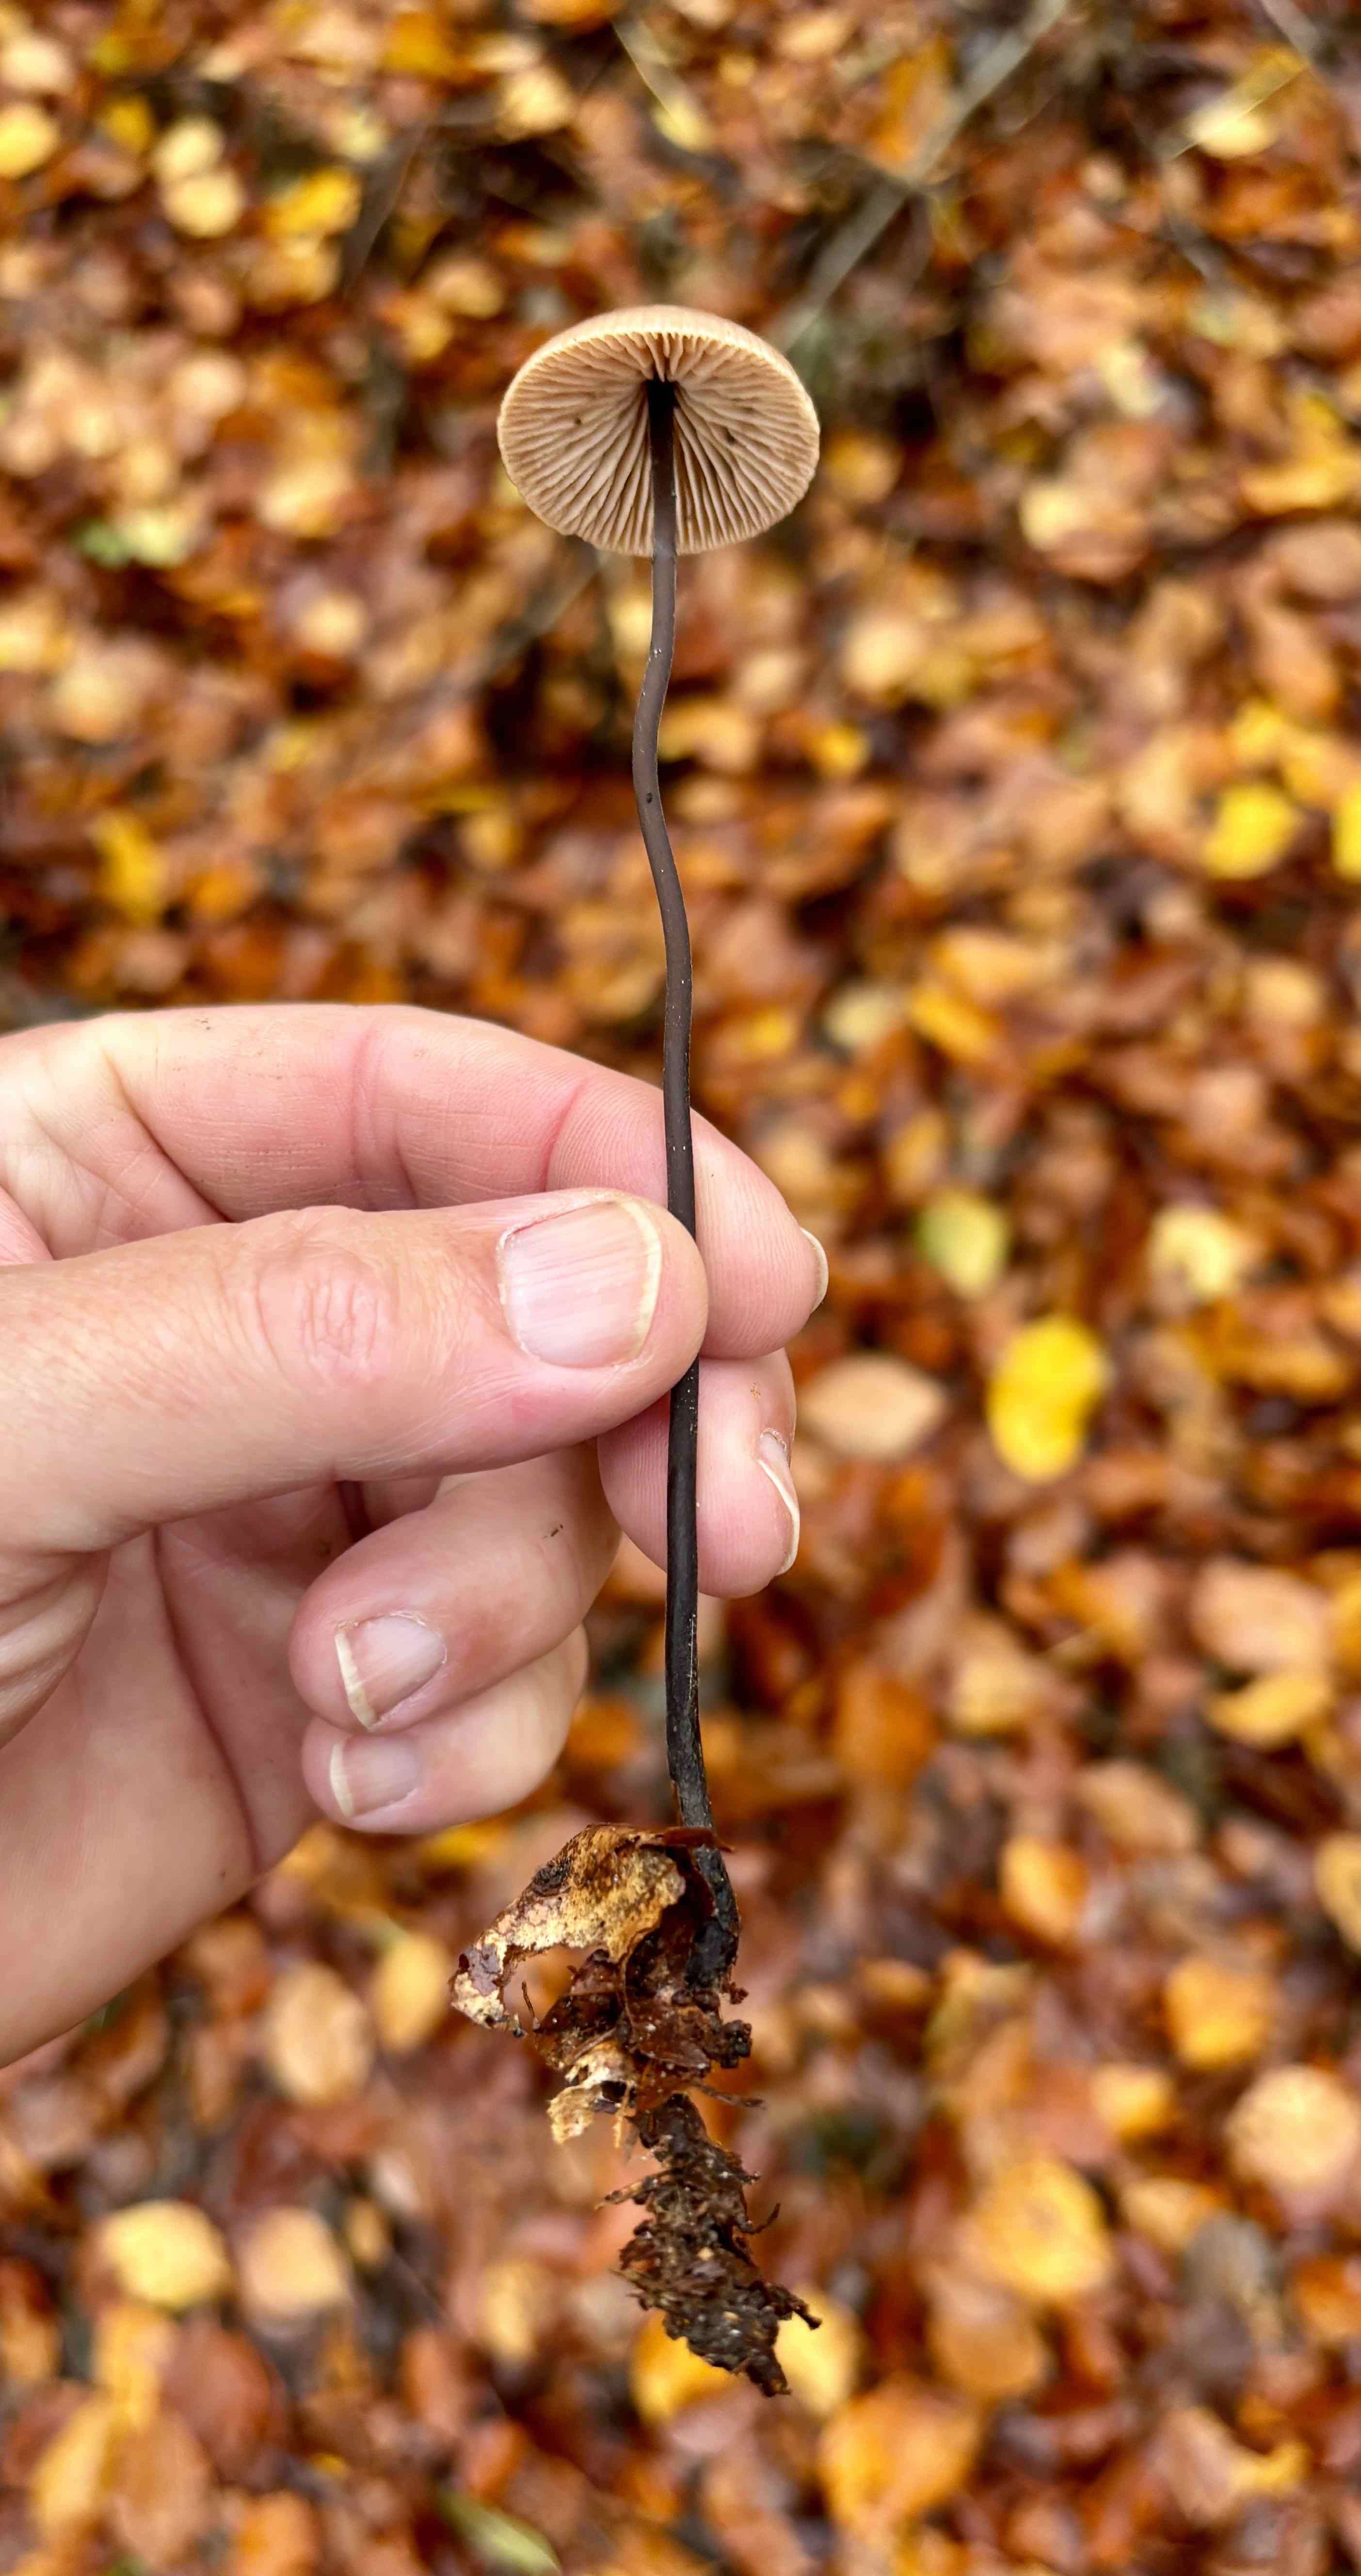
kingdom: Fungi
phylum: Basidiomycota
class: Agaricomycetes
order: Agaricales
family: Omphalotaceae
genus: Mycetinis
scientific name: Mycetinis alliaceus
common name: stor løghat
